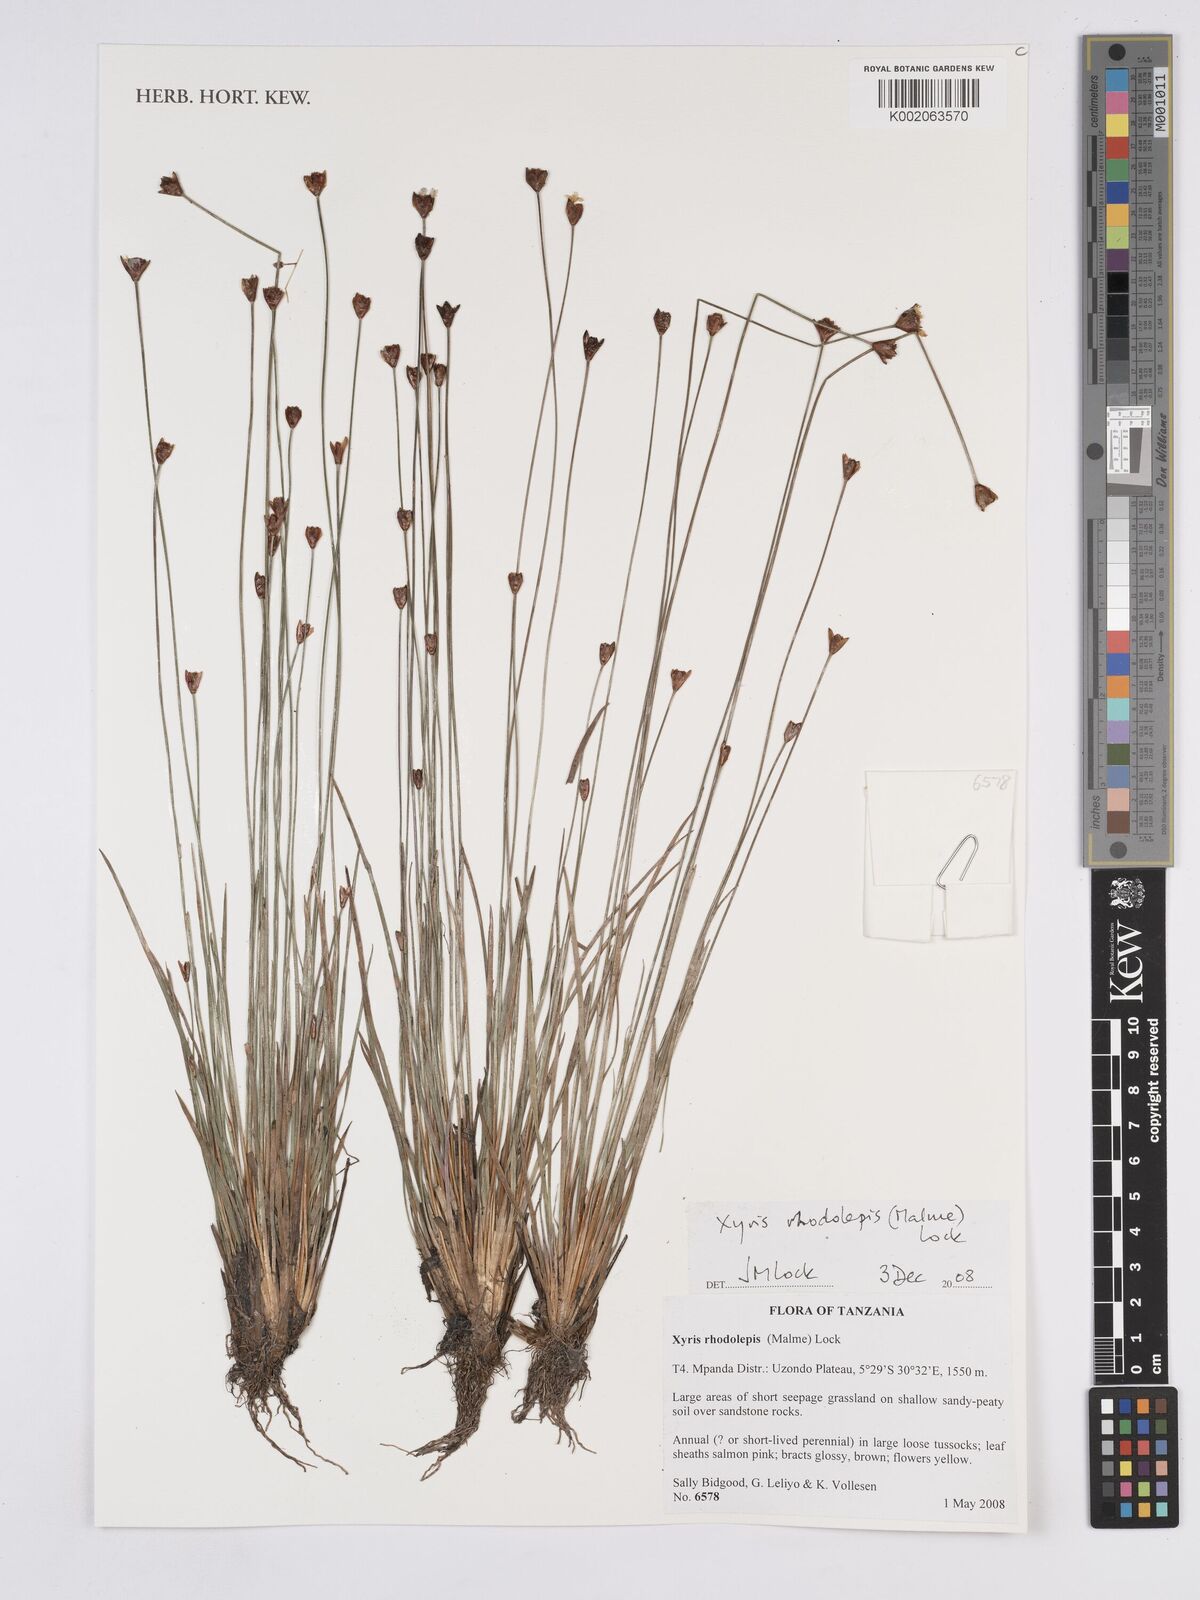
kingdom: Plantae
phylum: Tracheophyta
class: Liliopsida
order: Poales
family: Xyridaceae
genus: Xyris
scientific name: Xyris rhodolepis
